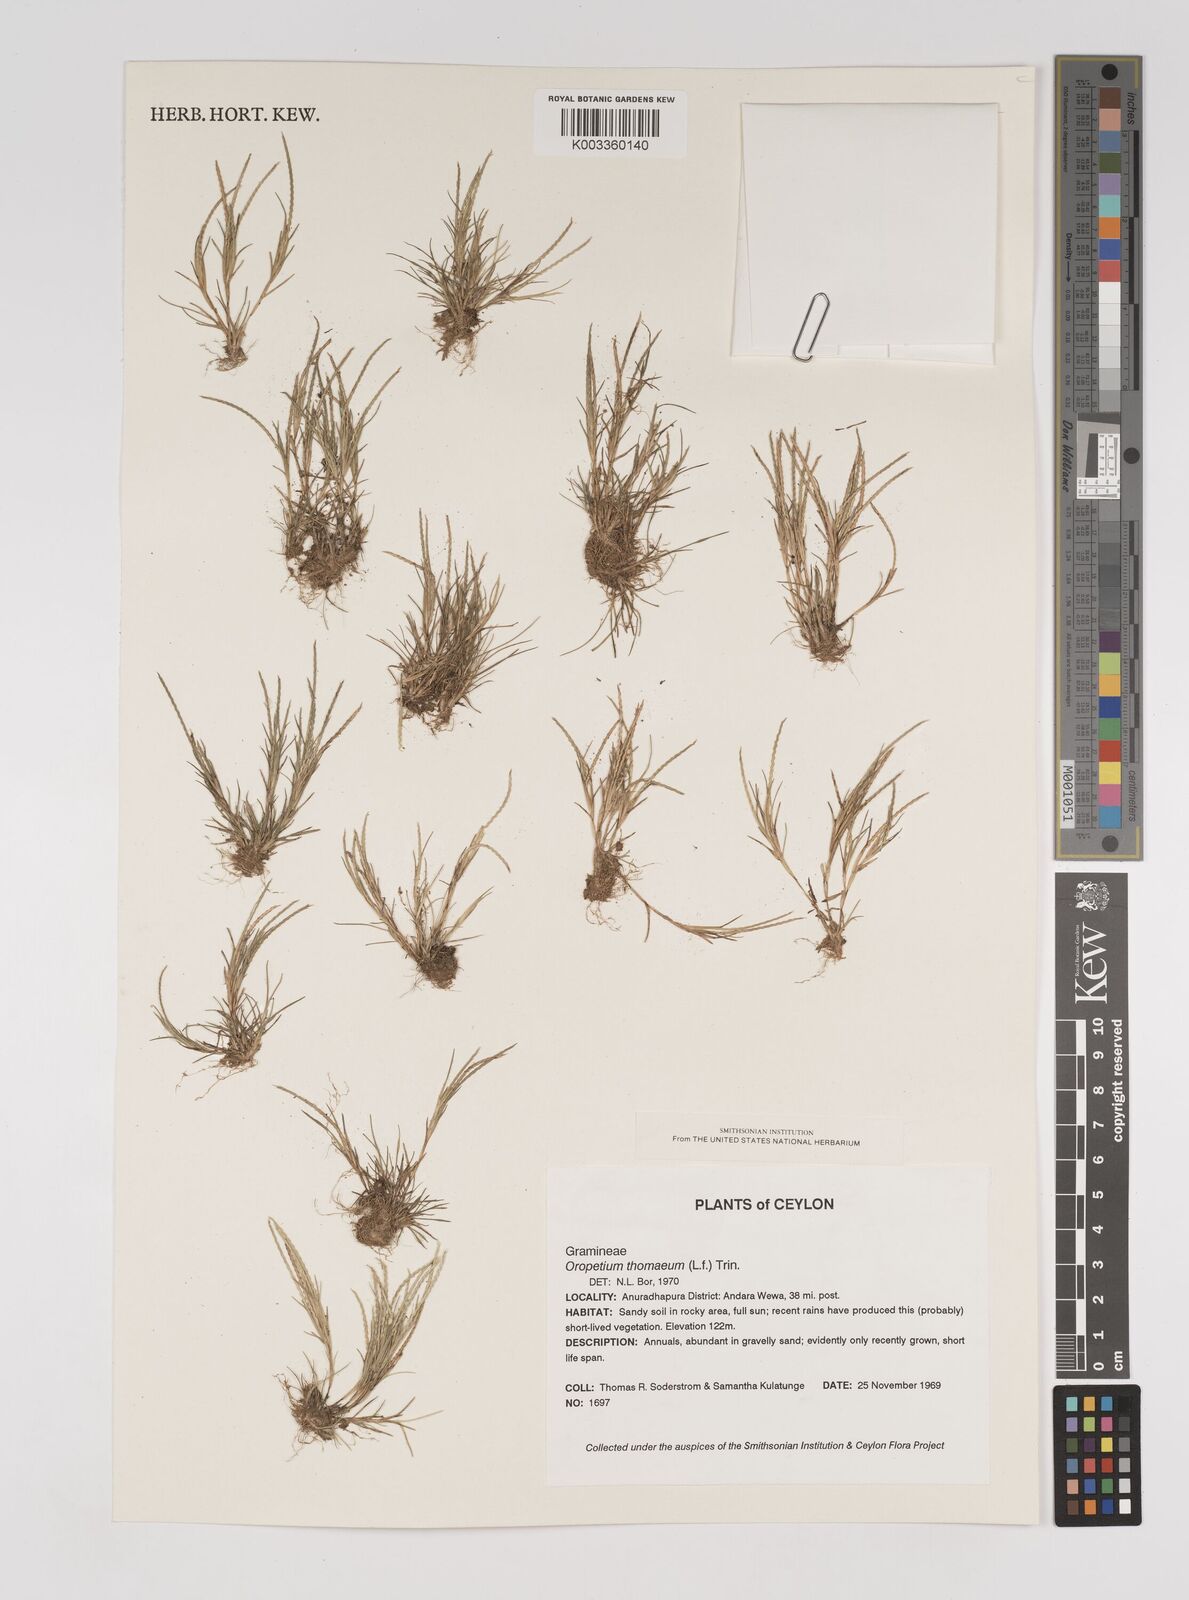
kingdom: Plantae
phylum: Tracheophyta
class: Liliopsida
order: Poales
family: Poaceae
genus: Oropetium
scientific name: Oropetium thomaeum
